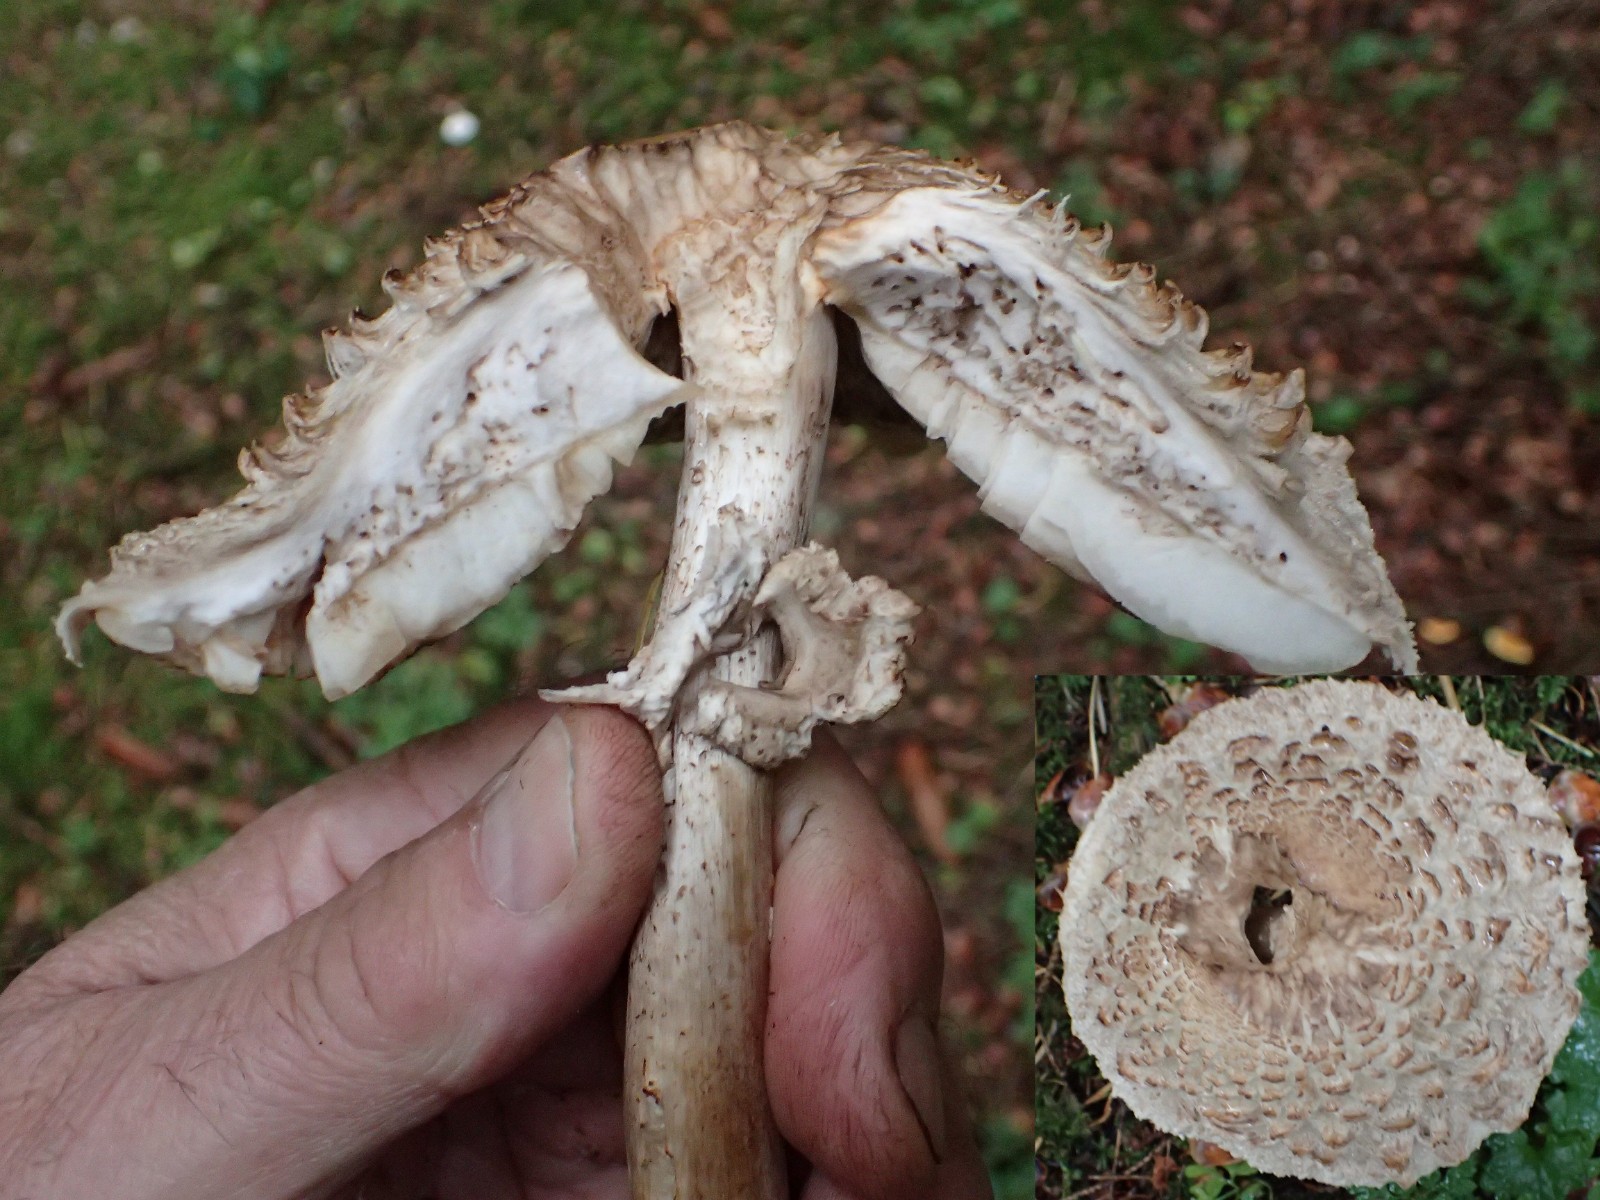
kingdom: Fungi
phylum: Basidiomycota
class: Agaricomycetes
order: Agaricales
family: Agaricaceae
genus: Chlorophyllum
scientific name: Chlorophyllum olivieri
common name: almindelig rabarberhat
